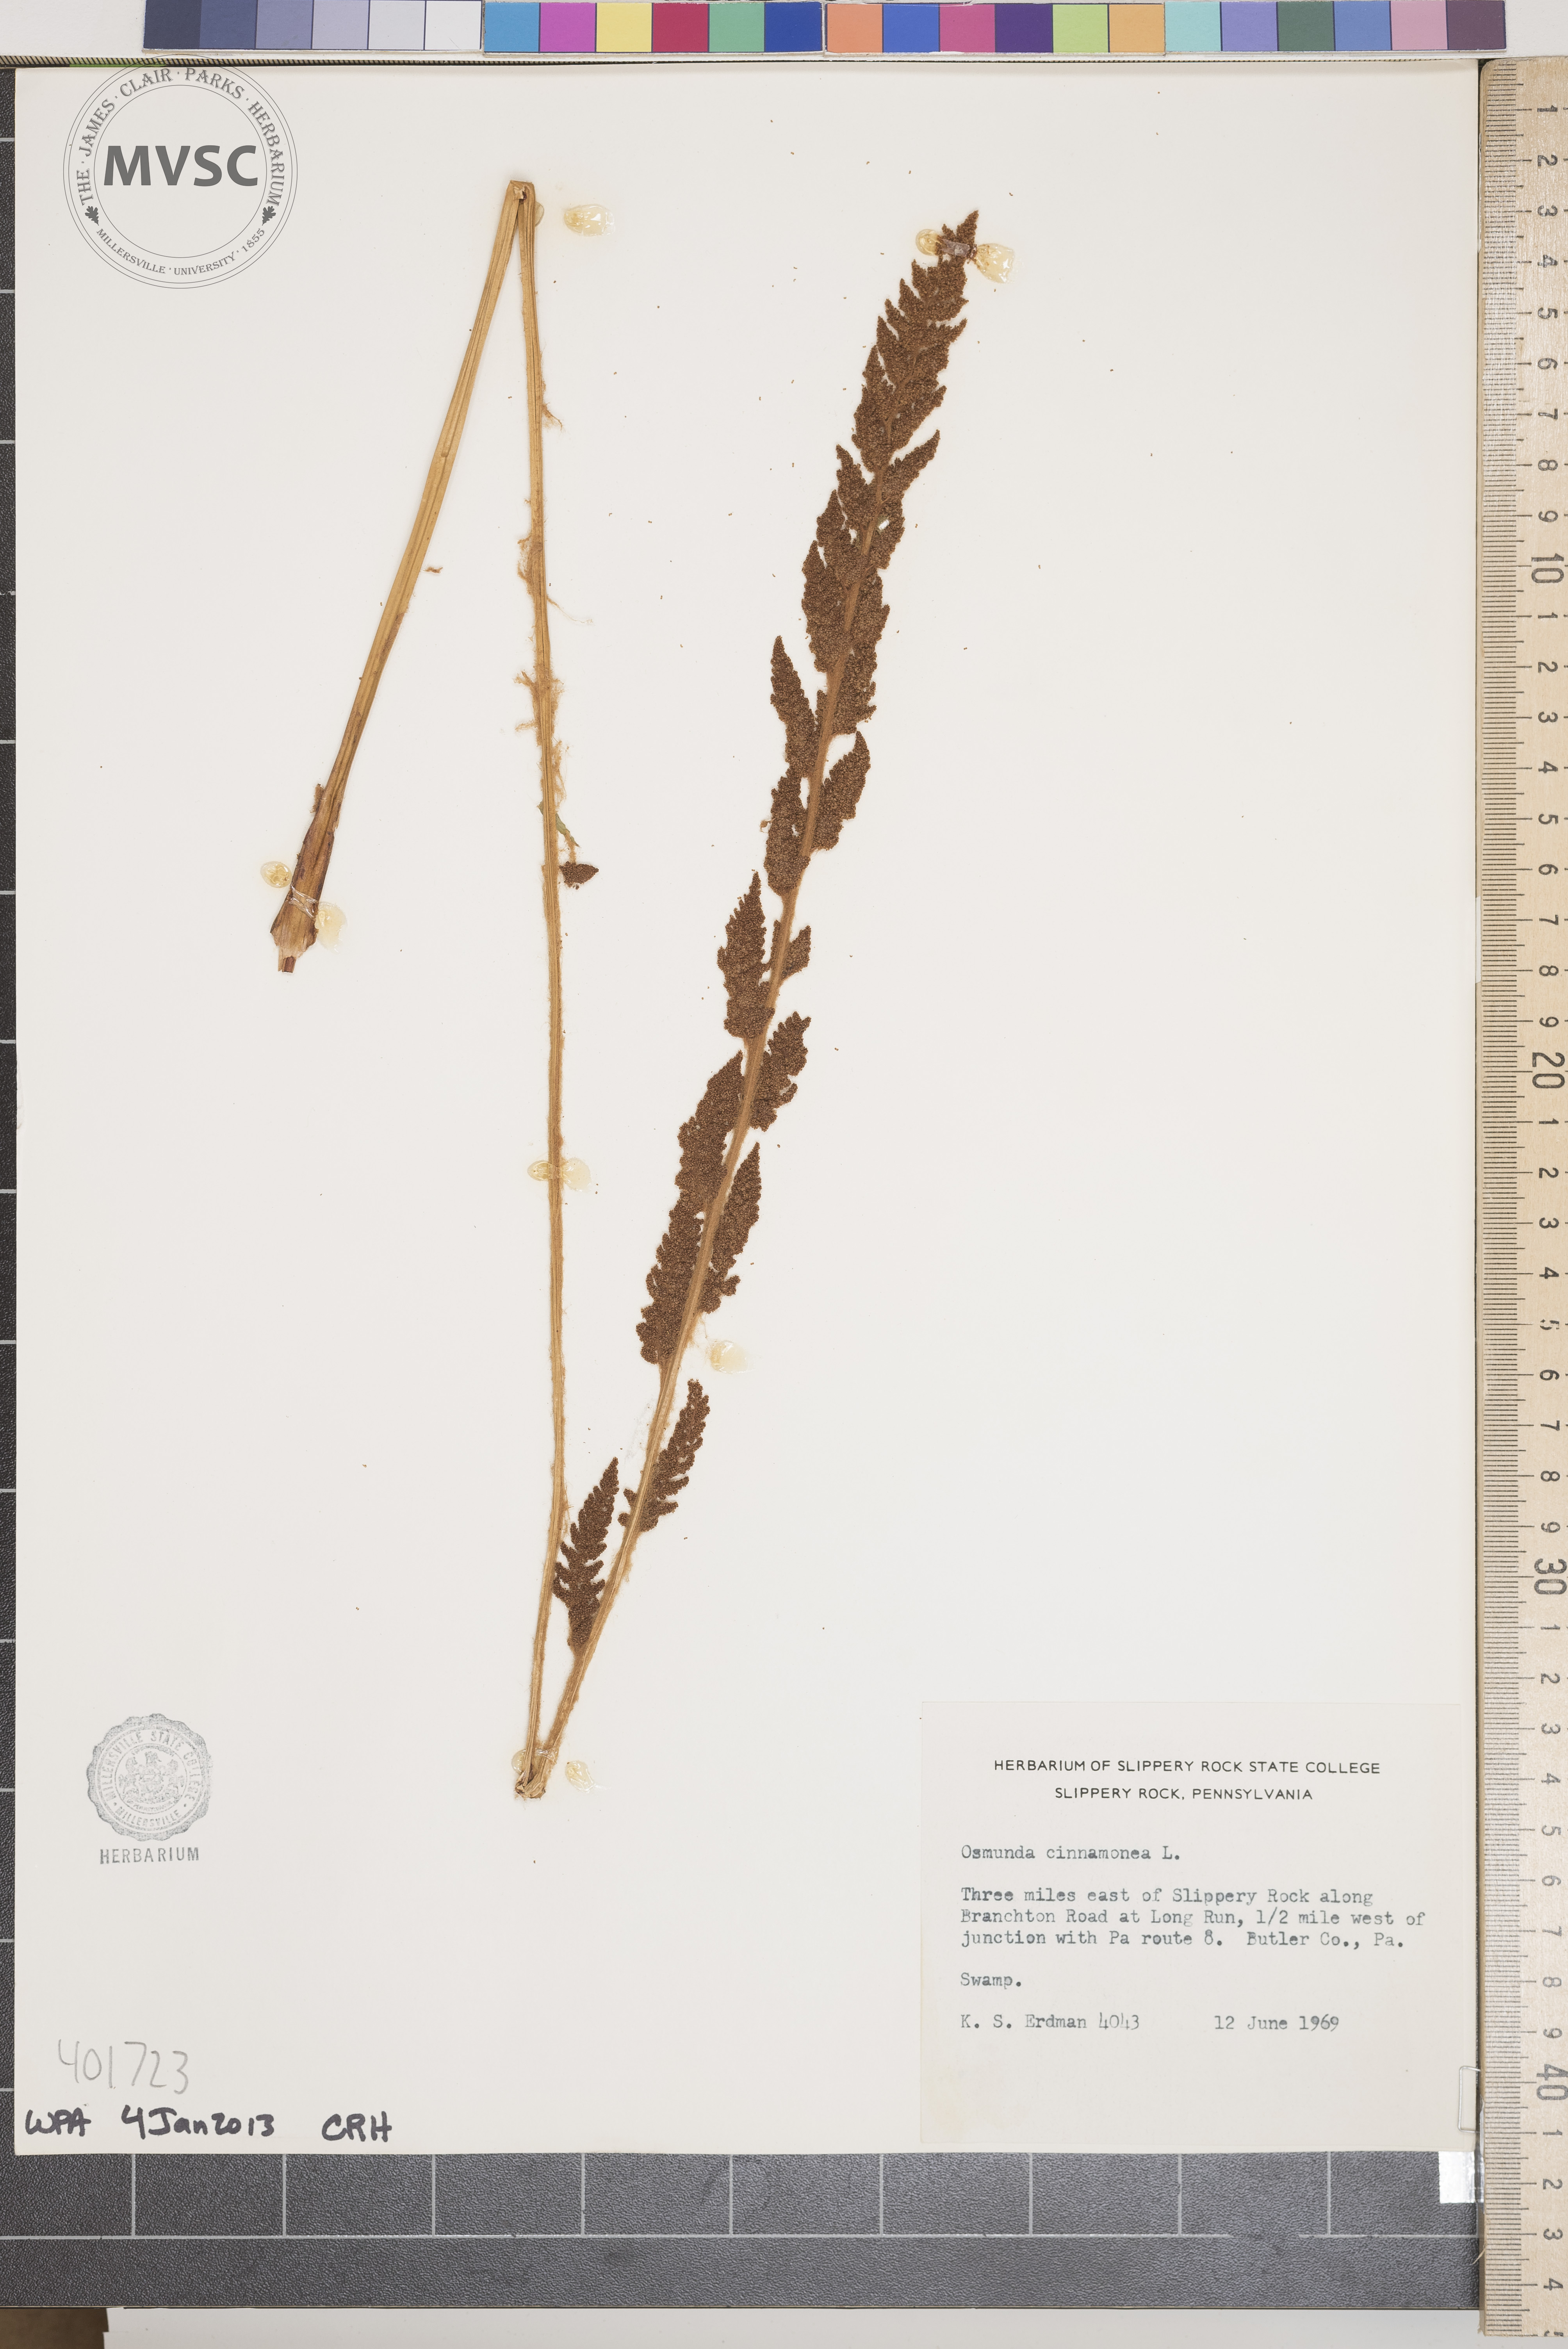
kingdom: Plantae
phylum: Tracheophyta
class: Polypodiopsida
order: Osmundales
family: Osmundaceae
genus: Osmundastrum
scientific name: Osmundastrum cinnamomeum
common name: Cinnamon fern
